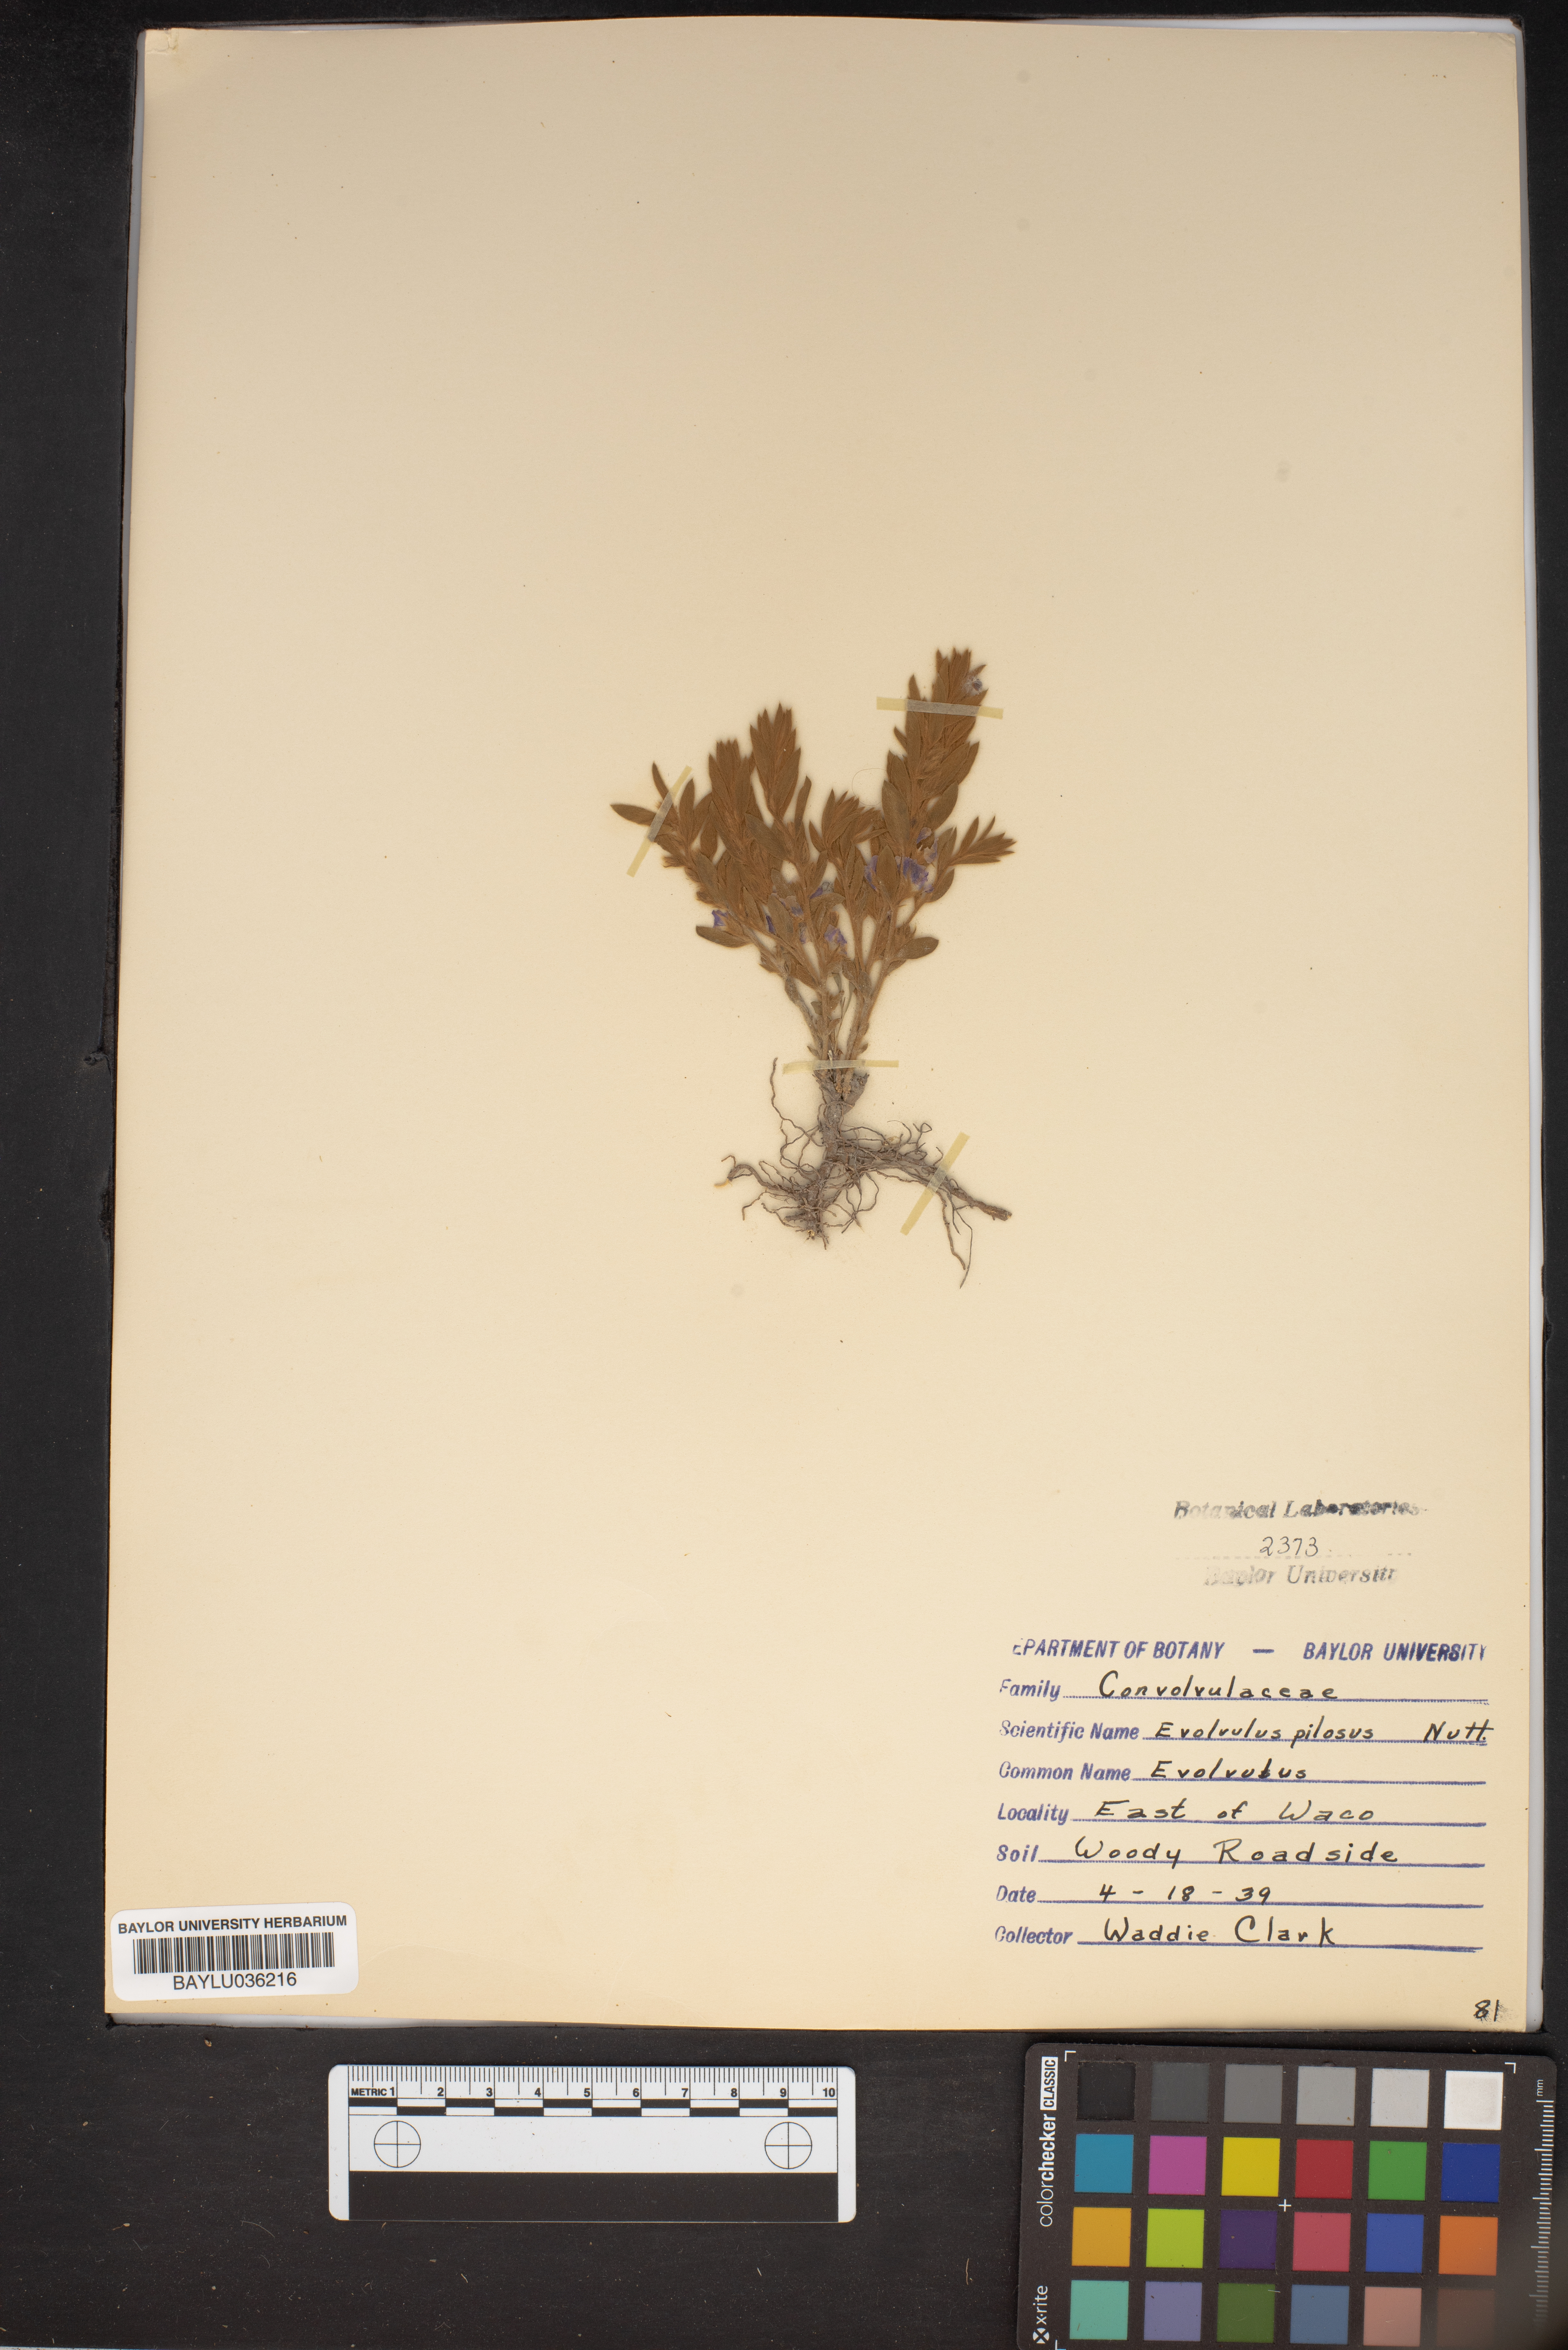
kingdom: Plantae
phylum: Tracheophyta
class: Magnoliopsida
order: Solanales
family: Convolvulaceae
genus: Evolvulus
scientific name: Evolvulus nuttallianus
